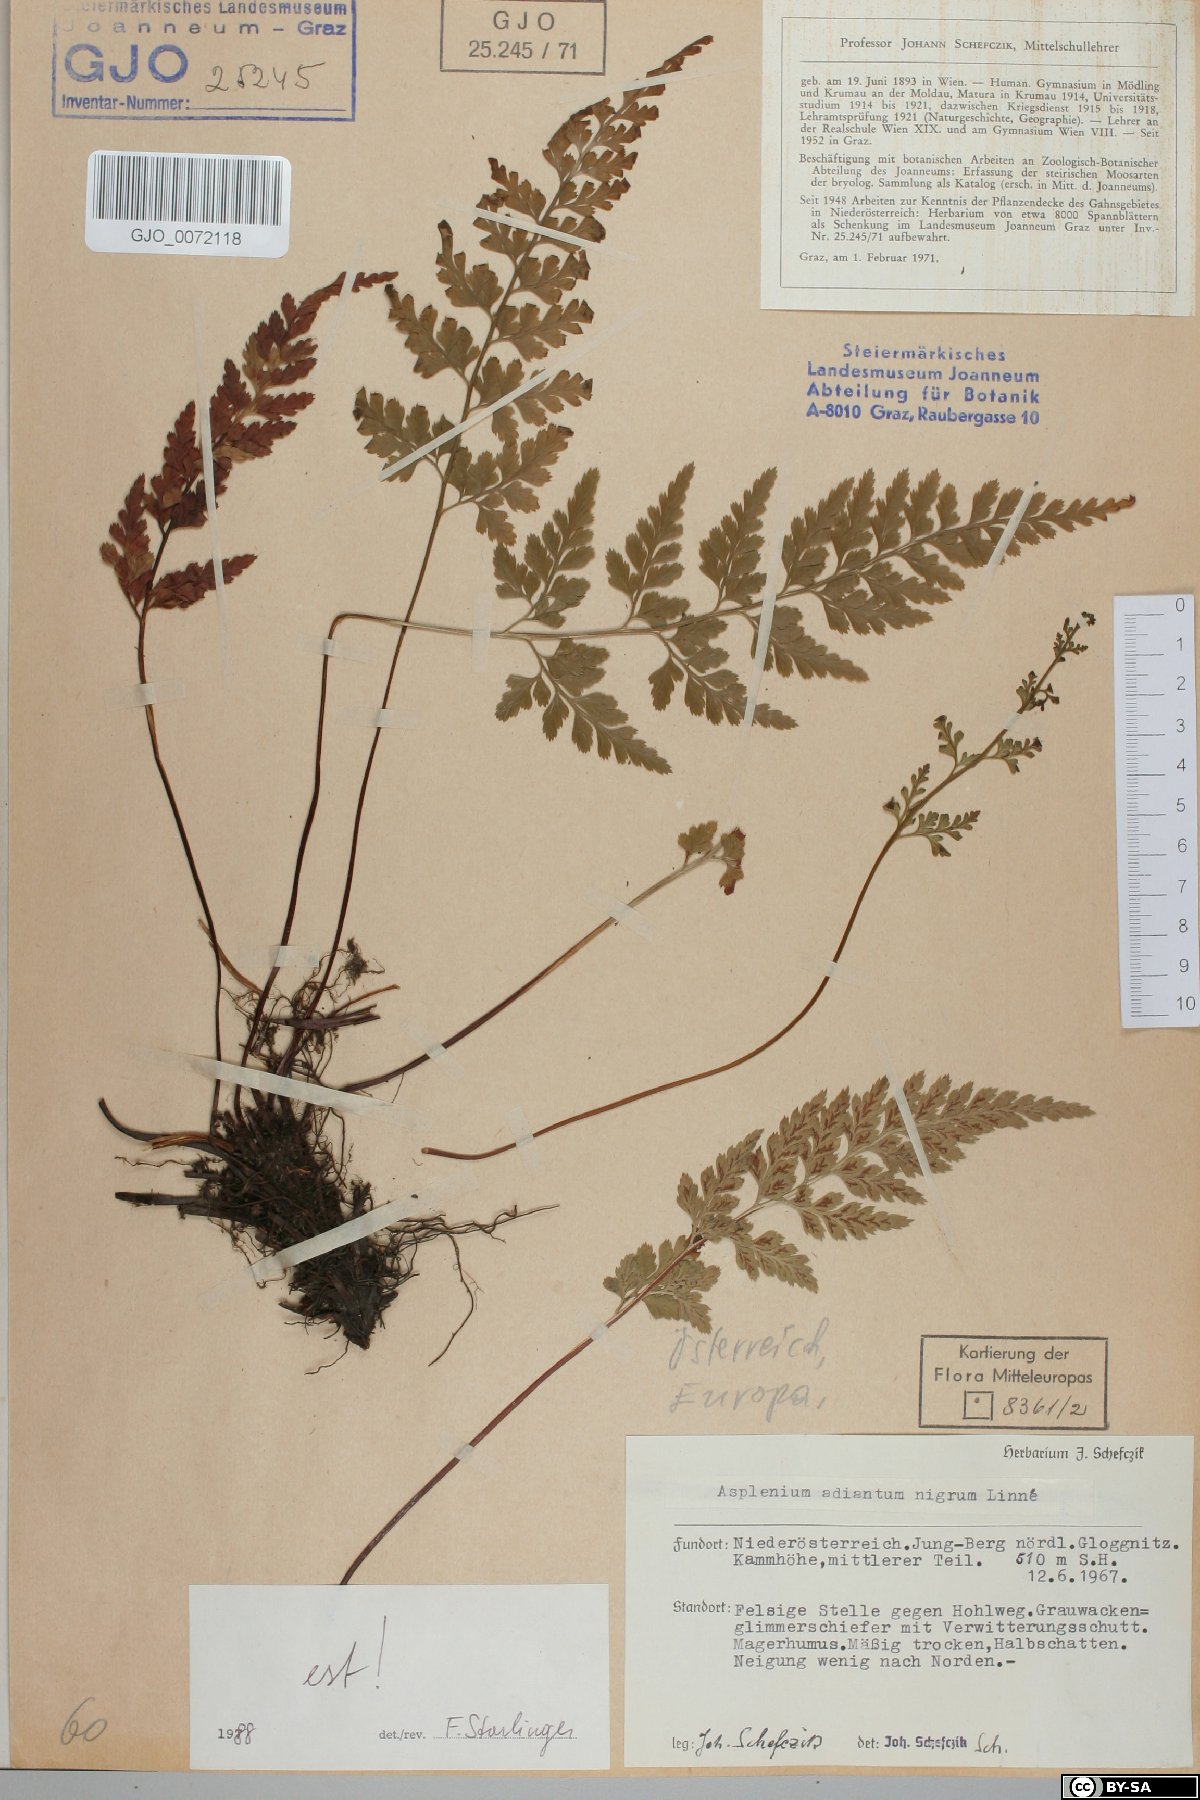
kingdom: Plantae
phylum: Tracheophyta
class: Polypodiopsida
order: Polypodiales
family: Aspleniaceae
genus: Asplenium
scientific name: Asplenium adiantum-nigrum
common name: Black spleenwort
